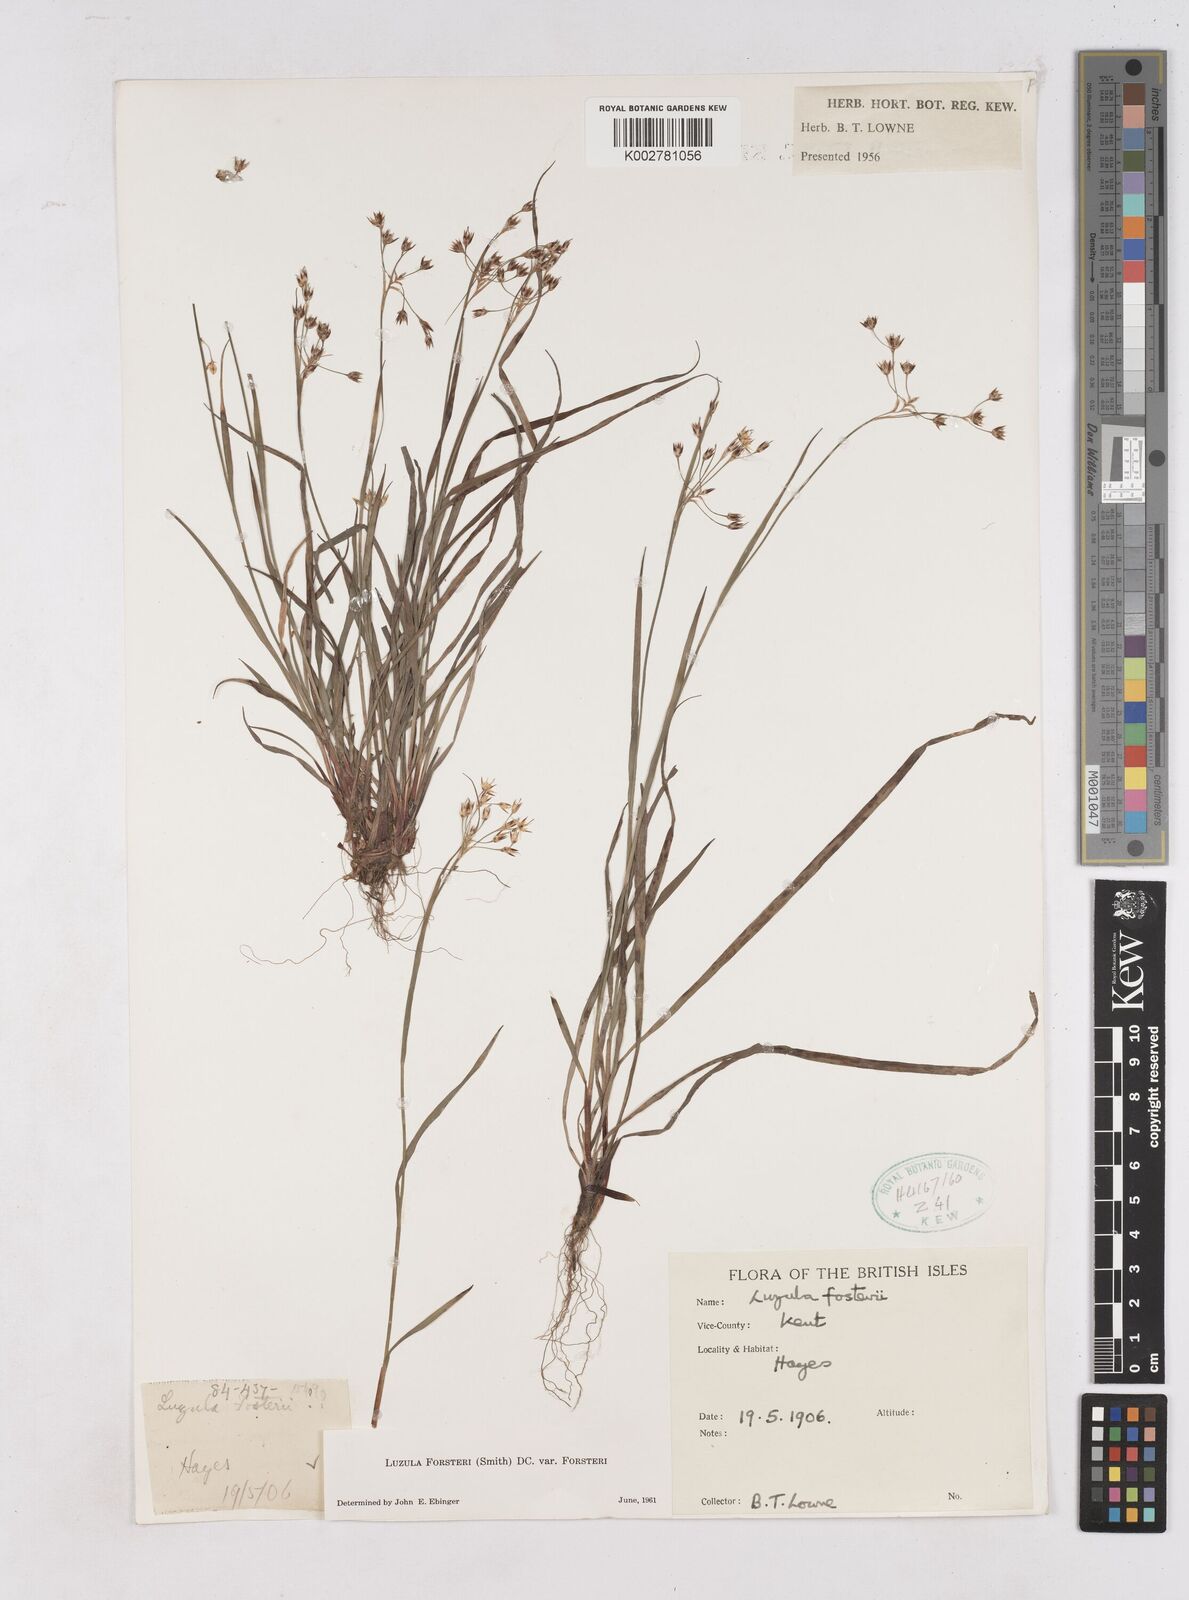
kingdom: Plantae
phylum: Tracheophyta
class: Liliopsida
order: Poales
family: Juncaceae
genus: Luzula
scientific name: Luzula forsteri
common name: Southern wood-rush
